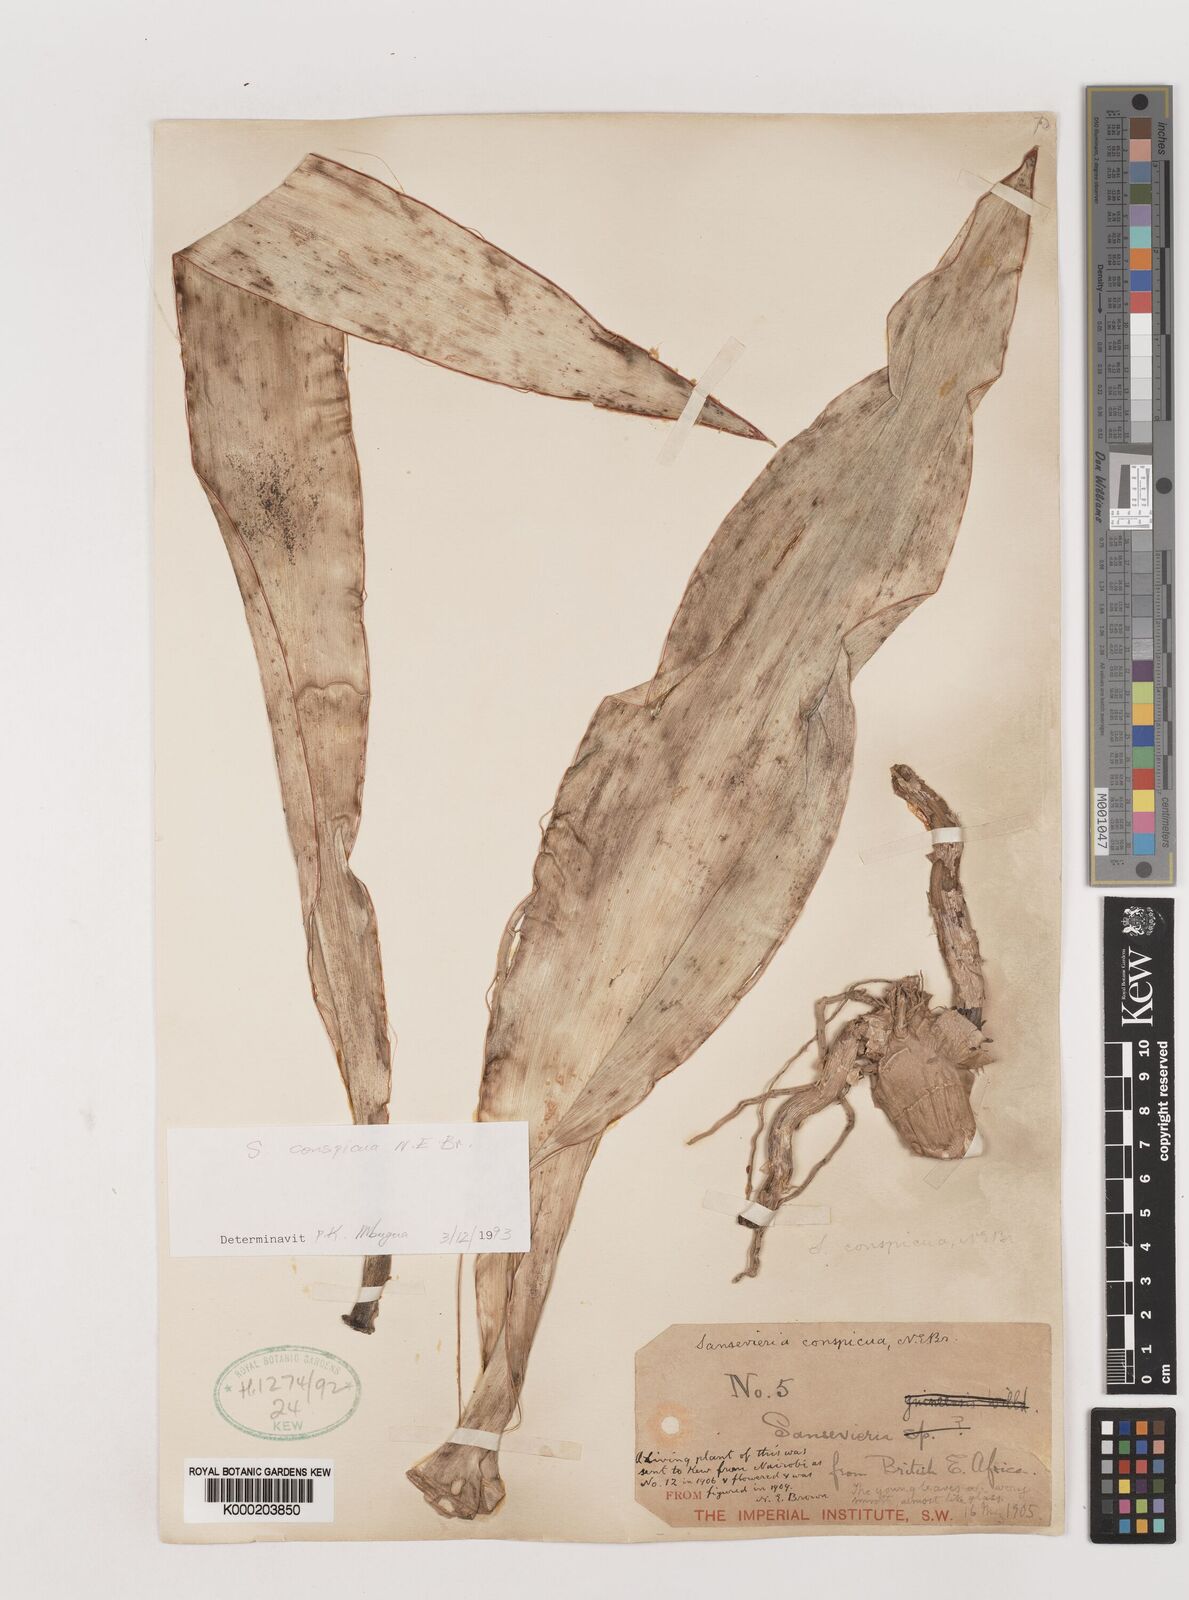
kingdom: Plantae
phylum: Tracheophyta
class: Liliopsida
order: Asparagales
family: Asparagaceae
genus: Dracaena
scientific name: Dracaena conspicua
